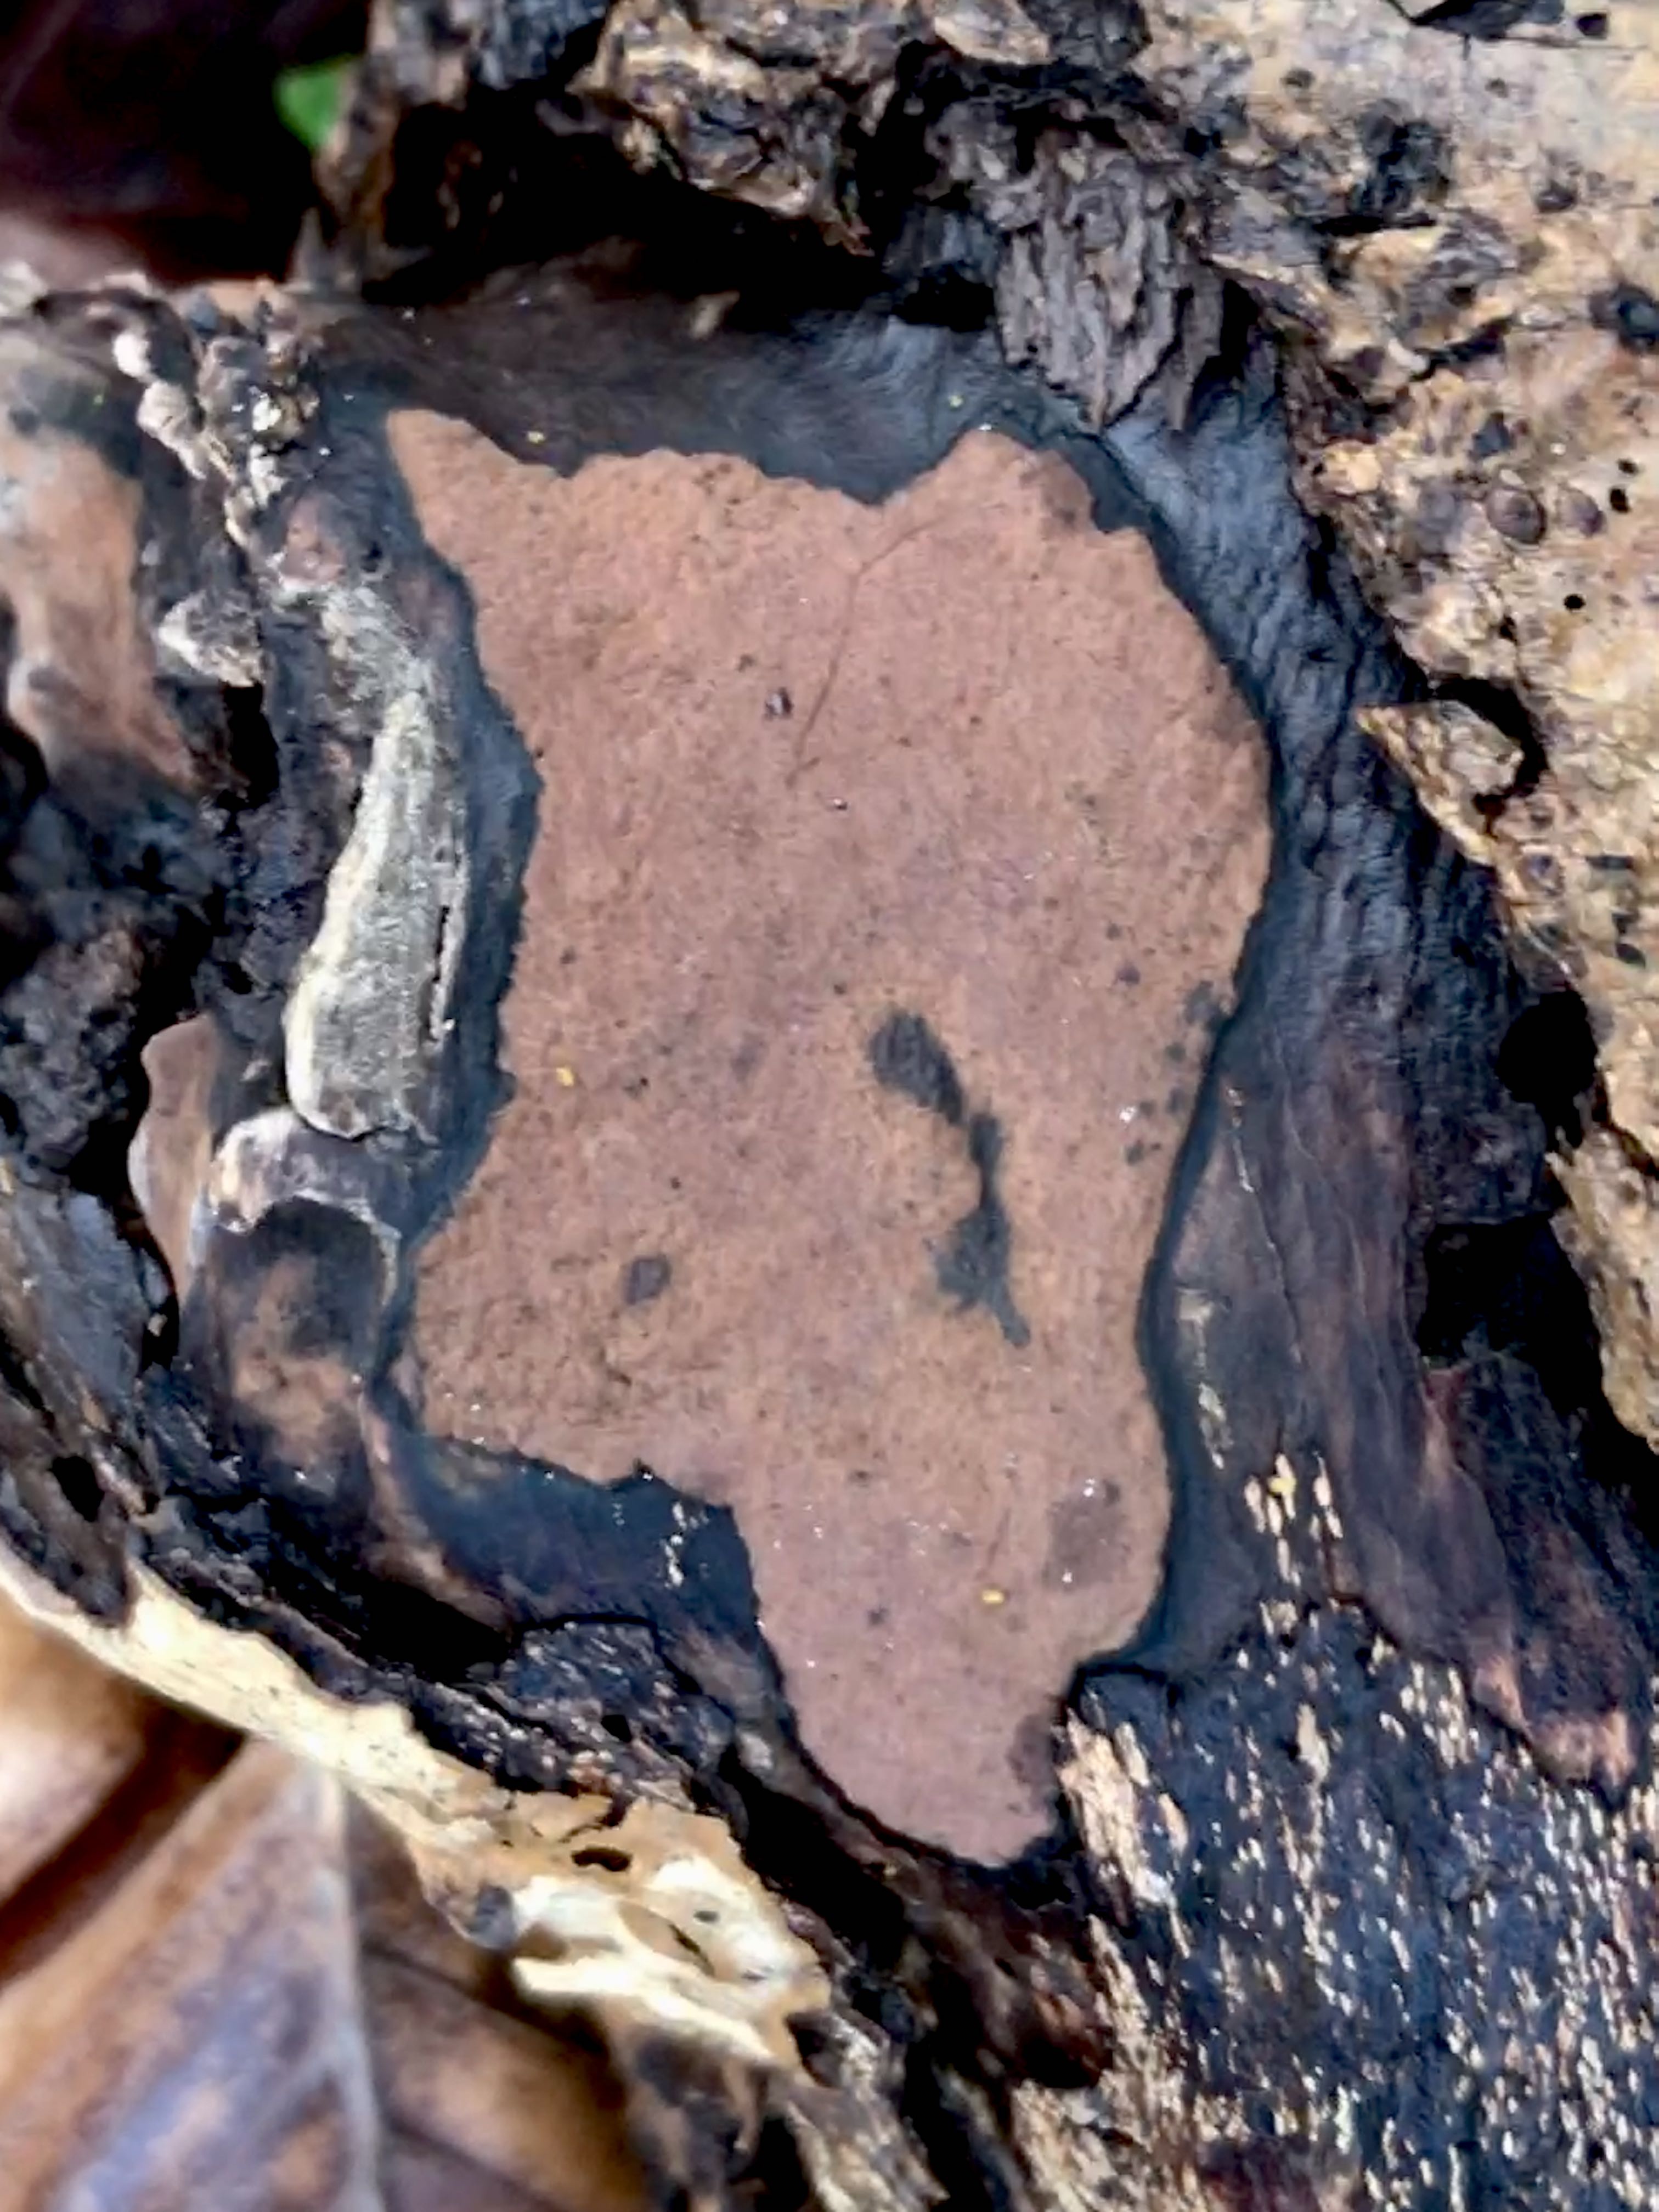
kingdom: Fungi
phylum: Ascomycota
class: Sordariomycetes
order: Xylariales
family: Hypoxylaceae
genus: Hypoxylon
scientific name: Hypoxylon petriniae
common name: nedsænket kulbær
